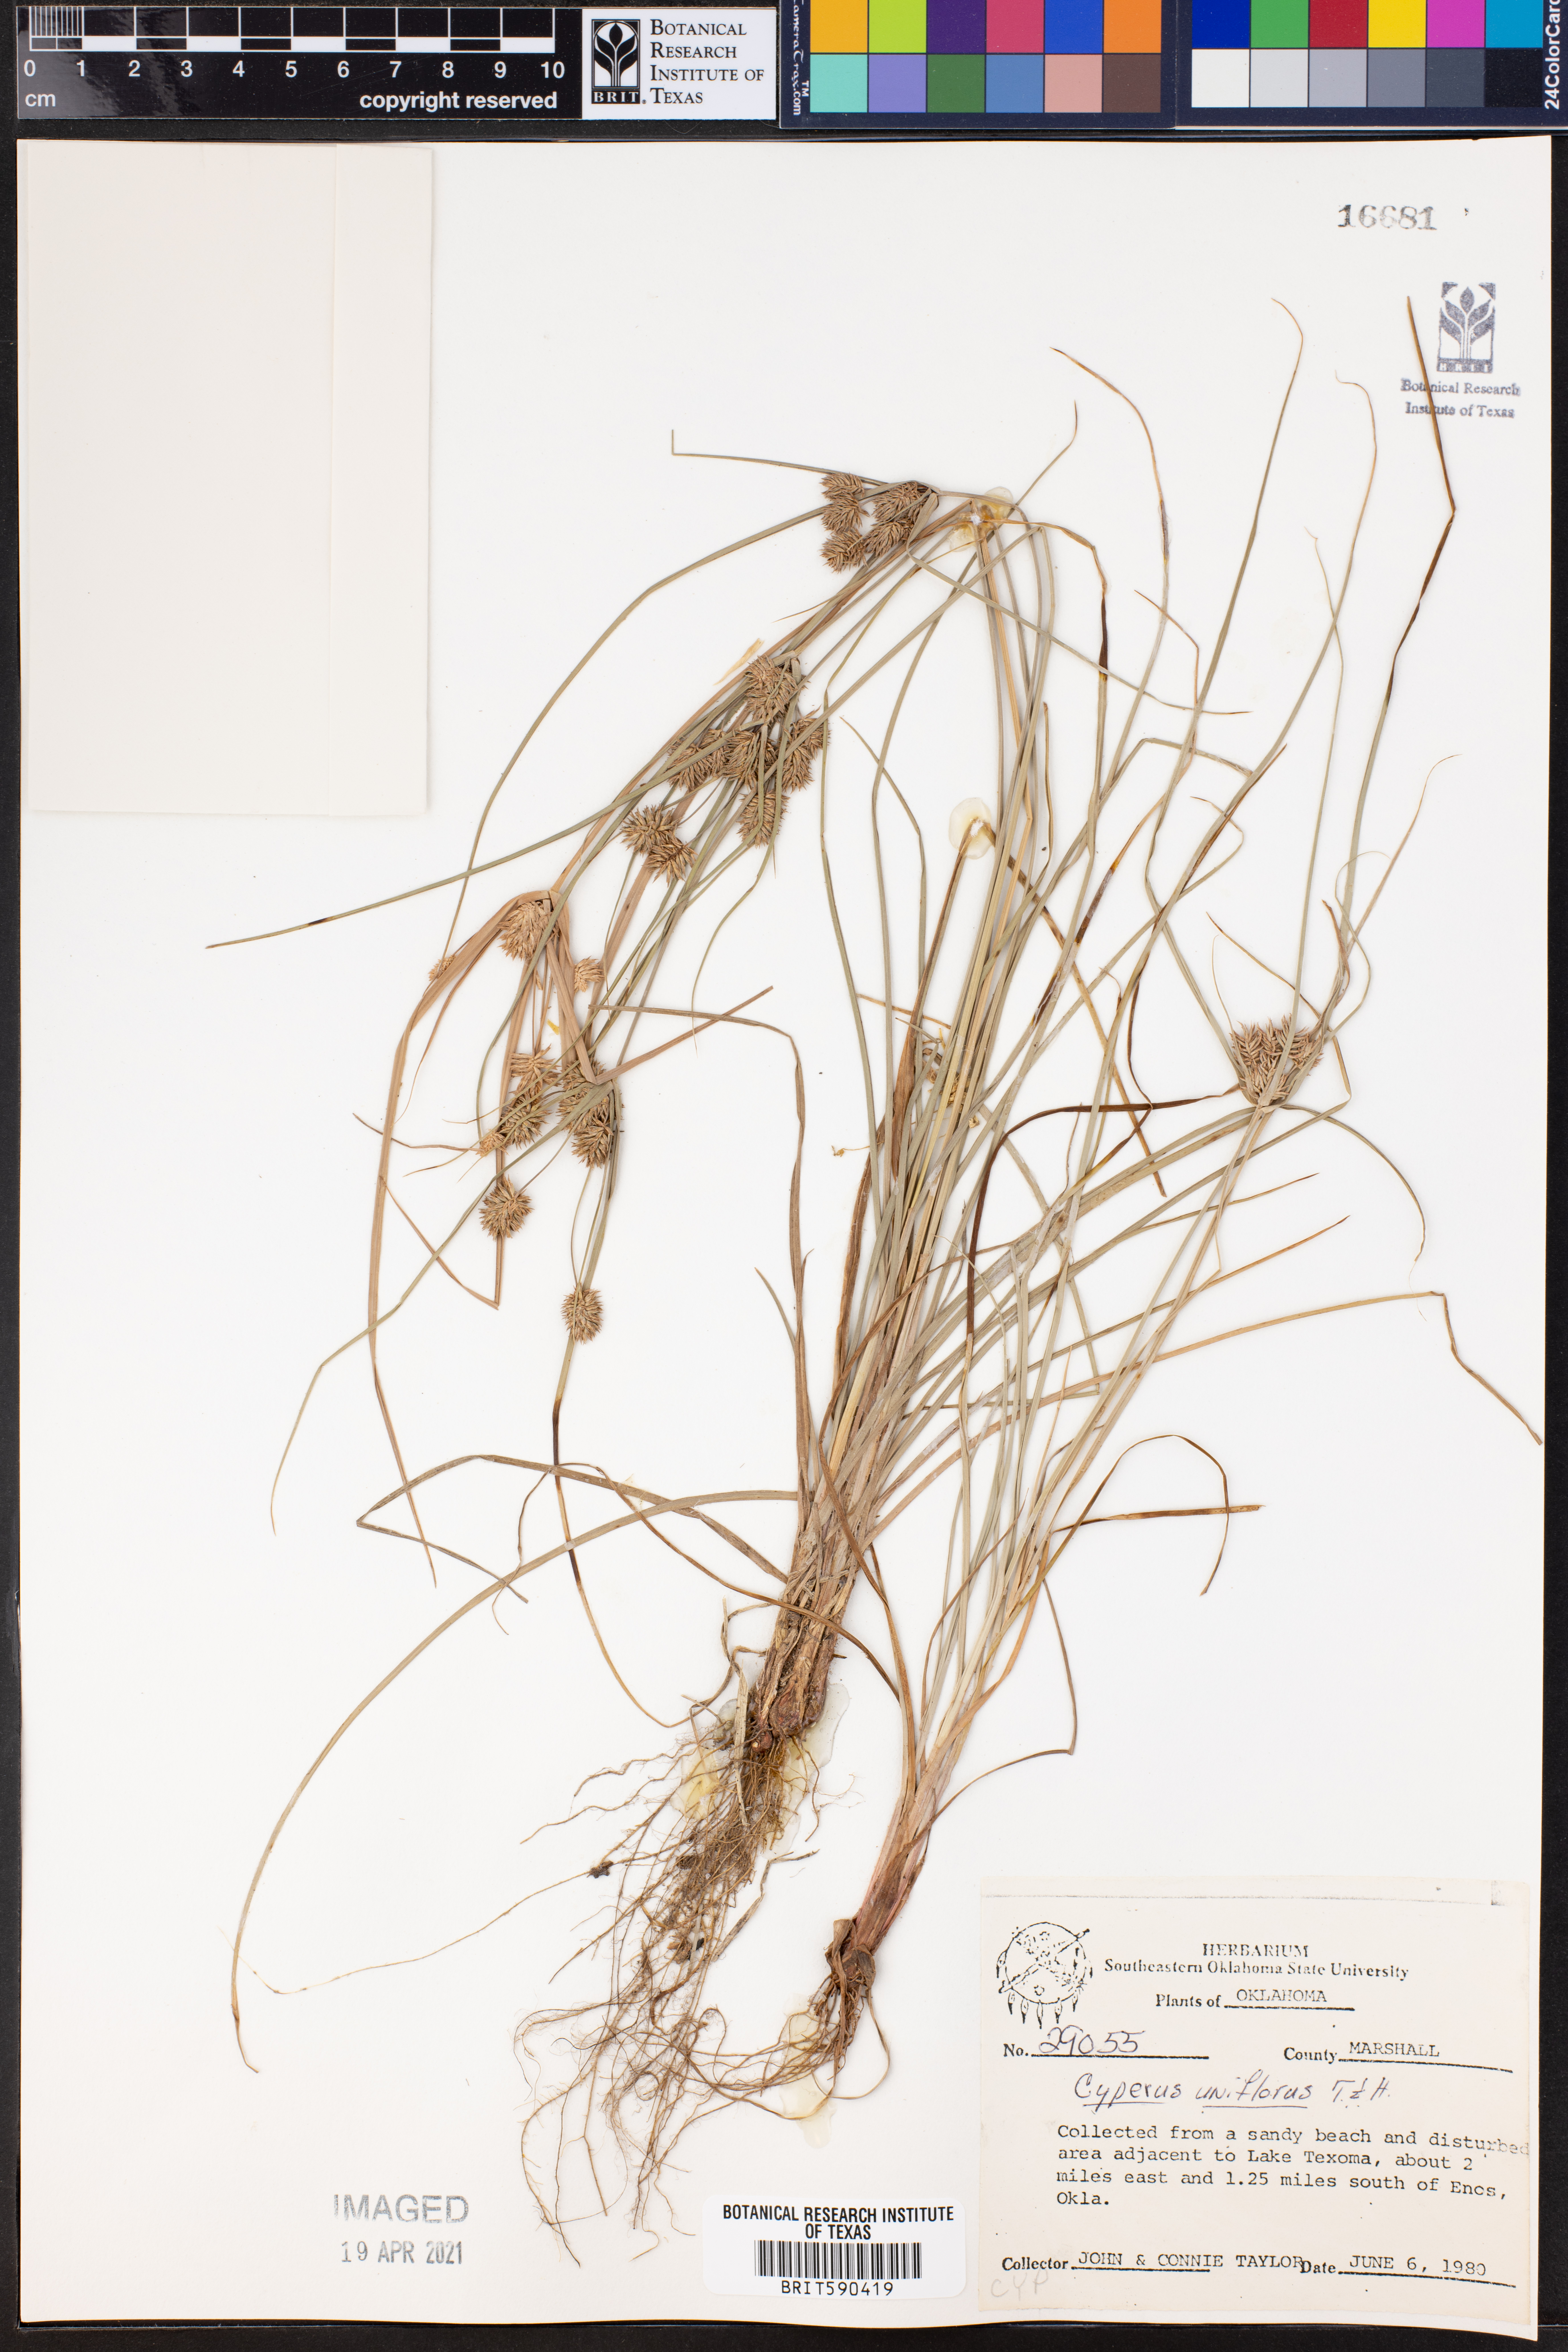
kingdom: Plantae
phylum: Tracheophyta
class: Liliopsida
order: Poales
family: Cyperaceae
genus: Cyperus
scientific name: Cyperus retroflexus
